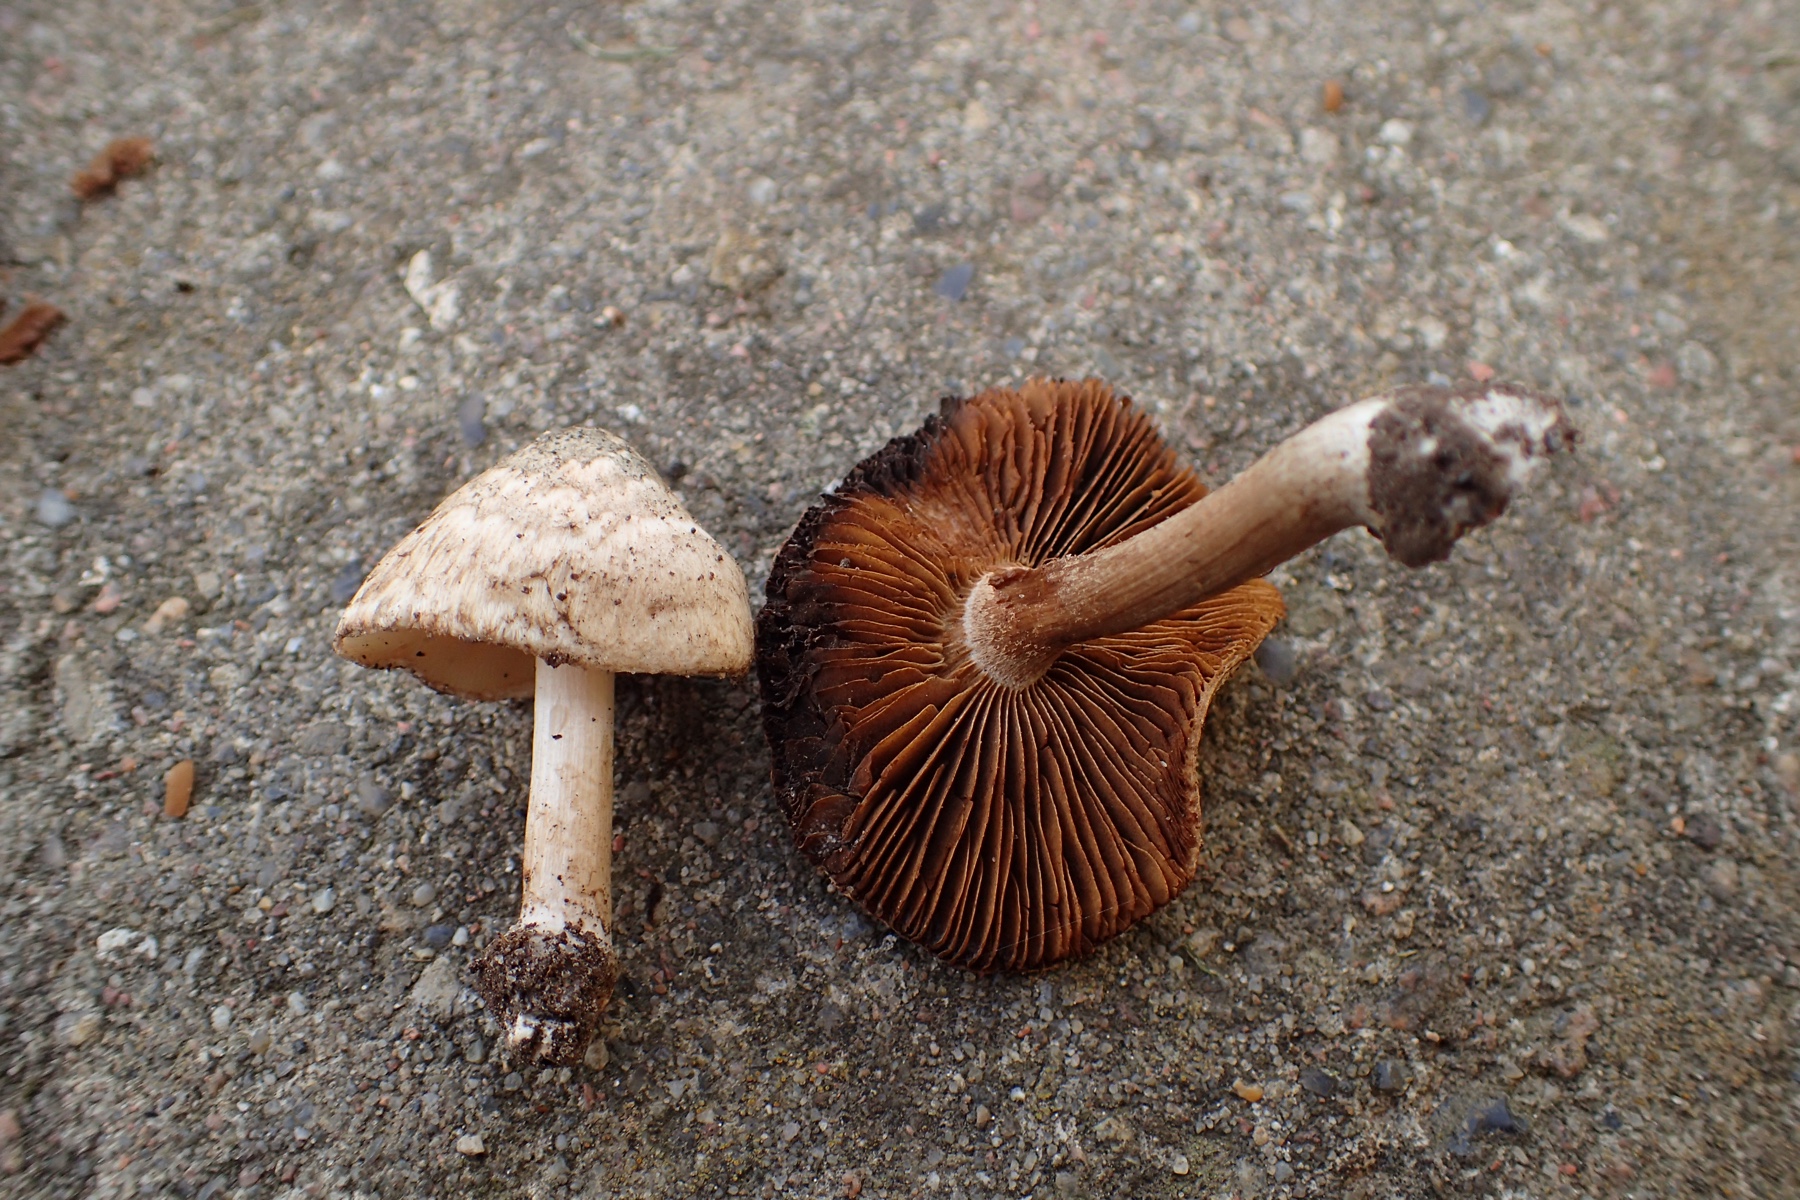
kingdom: Fungi
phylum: Basidiomycota
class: Agaricomycetes
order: Agaricales
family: Inocybaceae
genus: Inocybe
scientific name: Inocybe
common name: trævlhat
